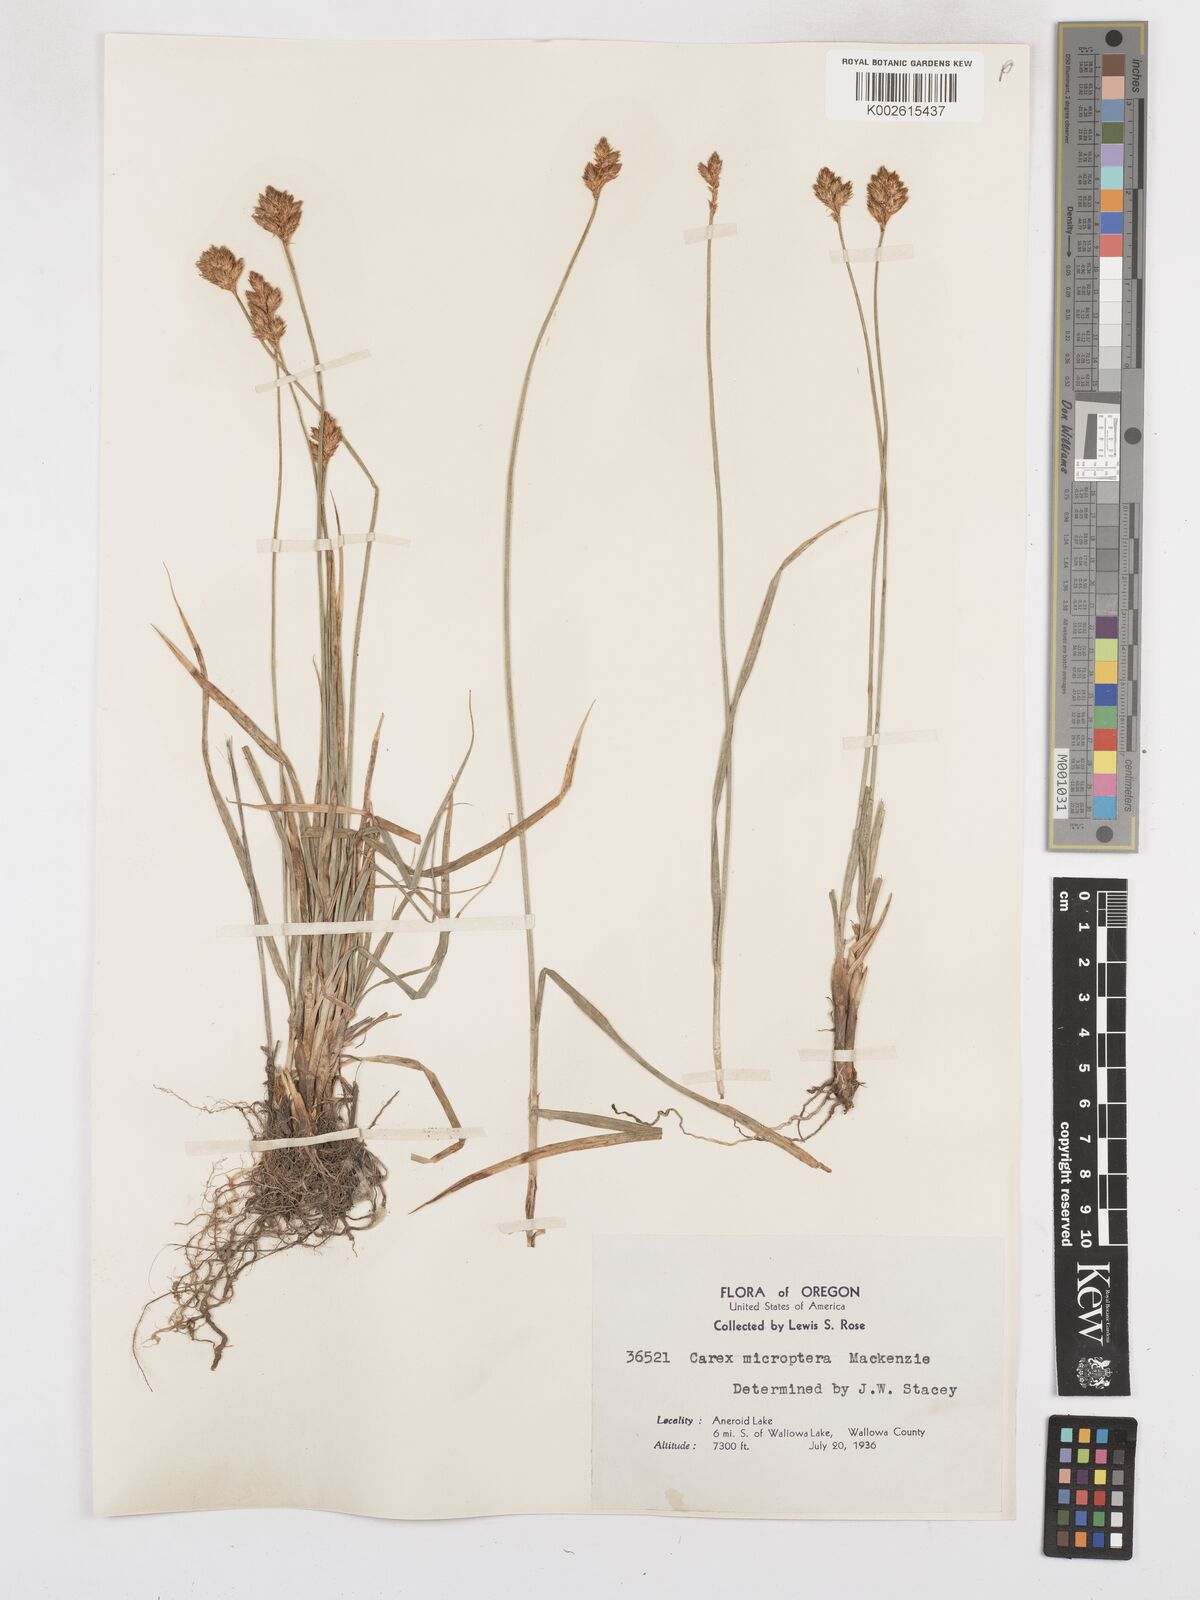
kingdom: Plantae
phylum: Tracheophyta
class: Liliopsida
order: Poales
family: Cyperaceae
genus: Carex
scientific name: Carex microptera
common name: Oval-headed sedge
